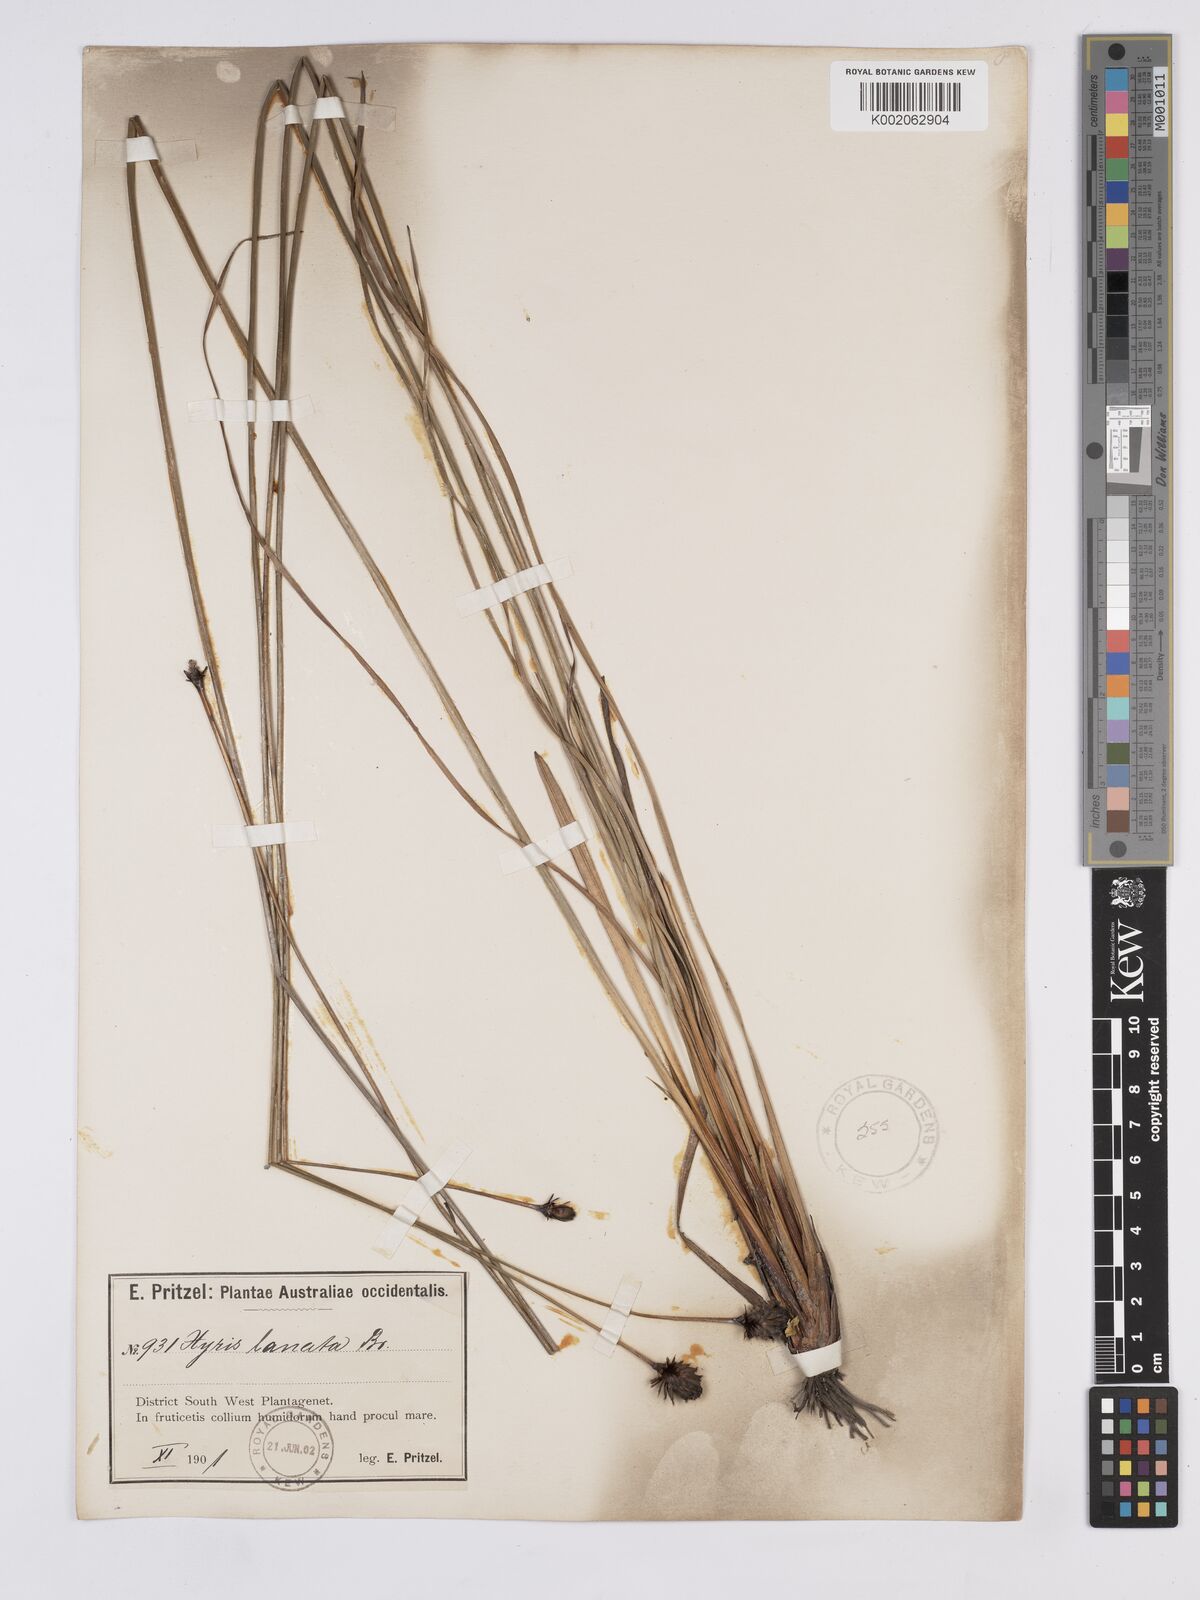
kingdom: Plantae
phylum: Tracheophyta
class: Liliopsida
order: Poales
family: Xyridaceae
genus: Xyris
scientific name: Xyris lanata
